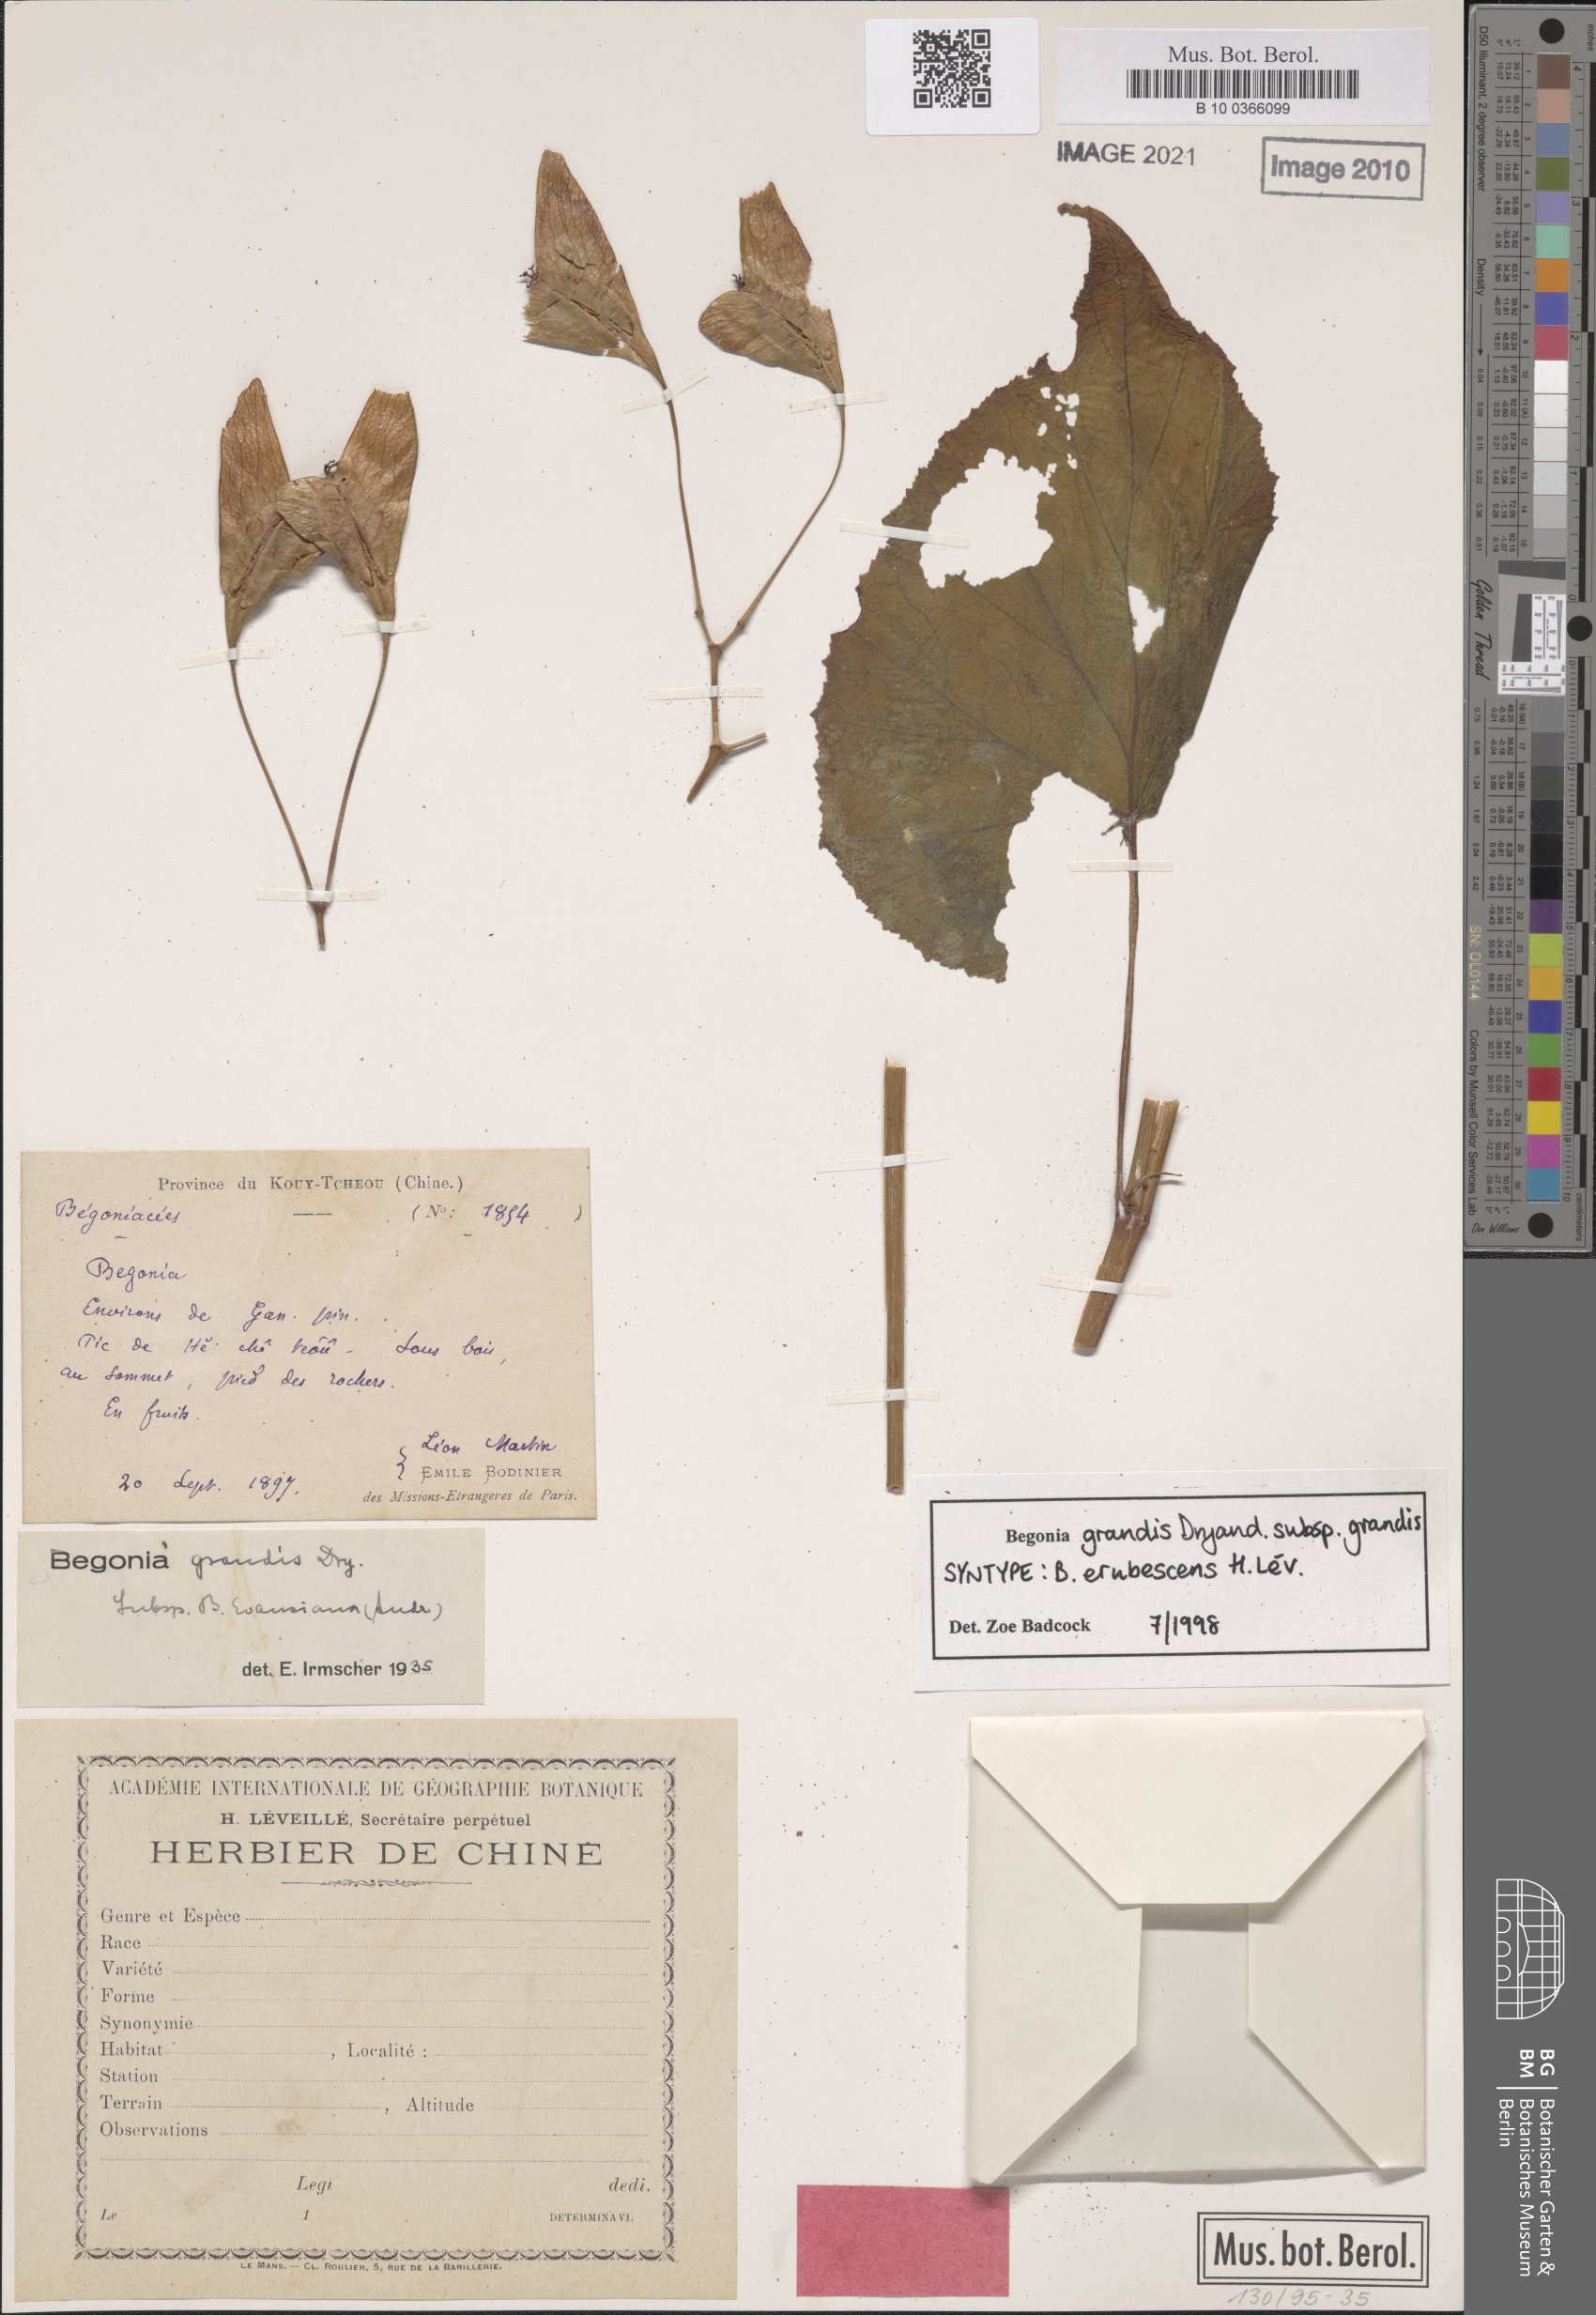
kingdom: Plantae
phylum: Tracheophyta
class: Magnoliopsida
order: Cucurbitales
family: Begoniaceae
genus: Begonia
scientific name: Begonia grandis
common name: Hardy begonia
